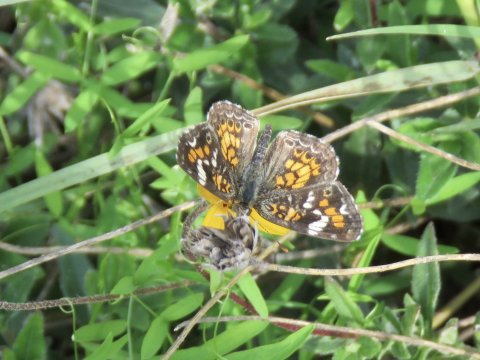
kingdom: Animalia
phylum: Arthropoda
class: Insecta
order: Lepidoptera
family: Nymphalidae
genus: Phyciodes
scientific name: Phyciodes phaon
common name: Phaon Crescent
